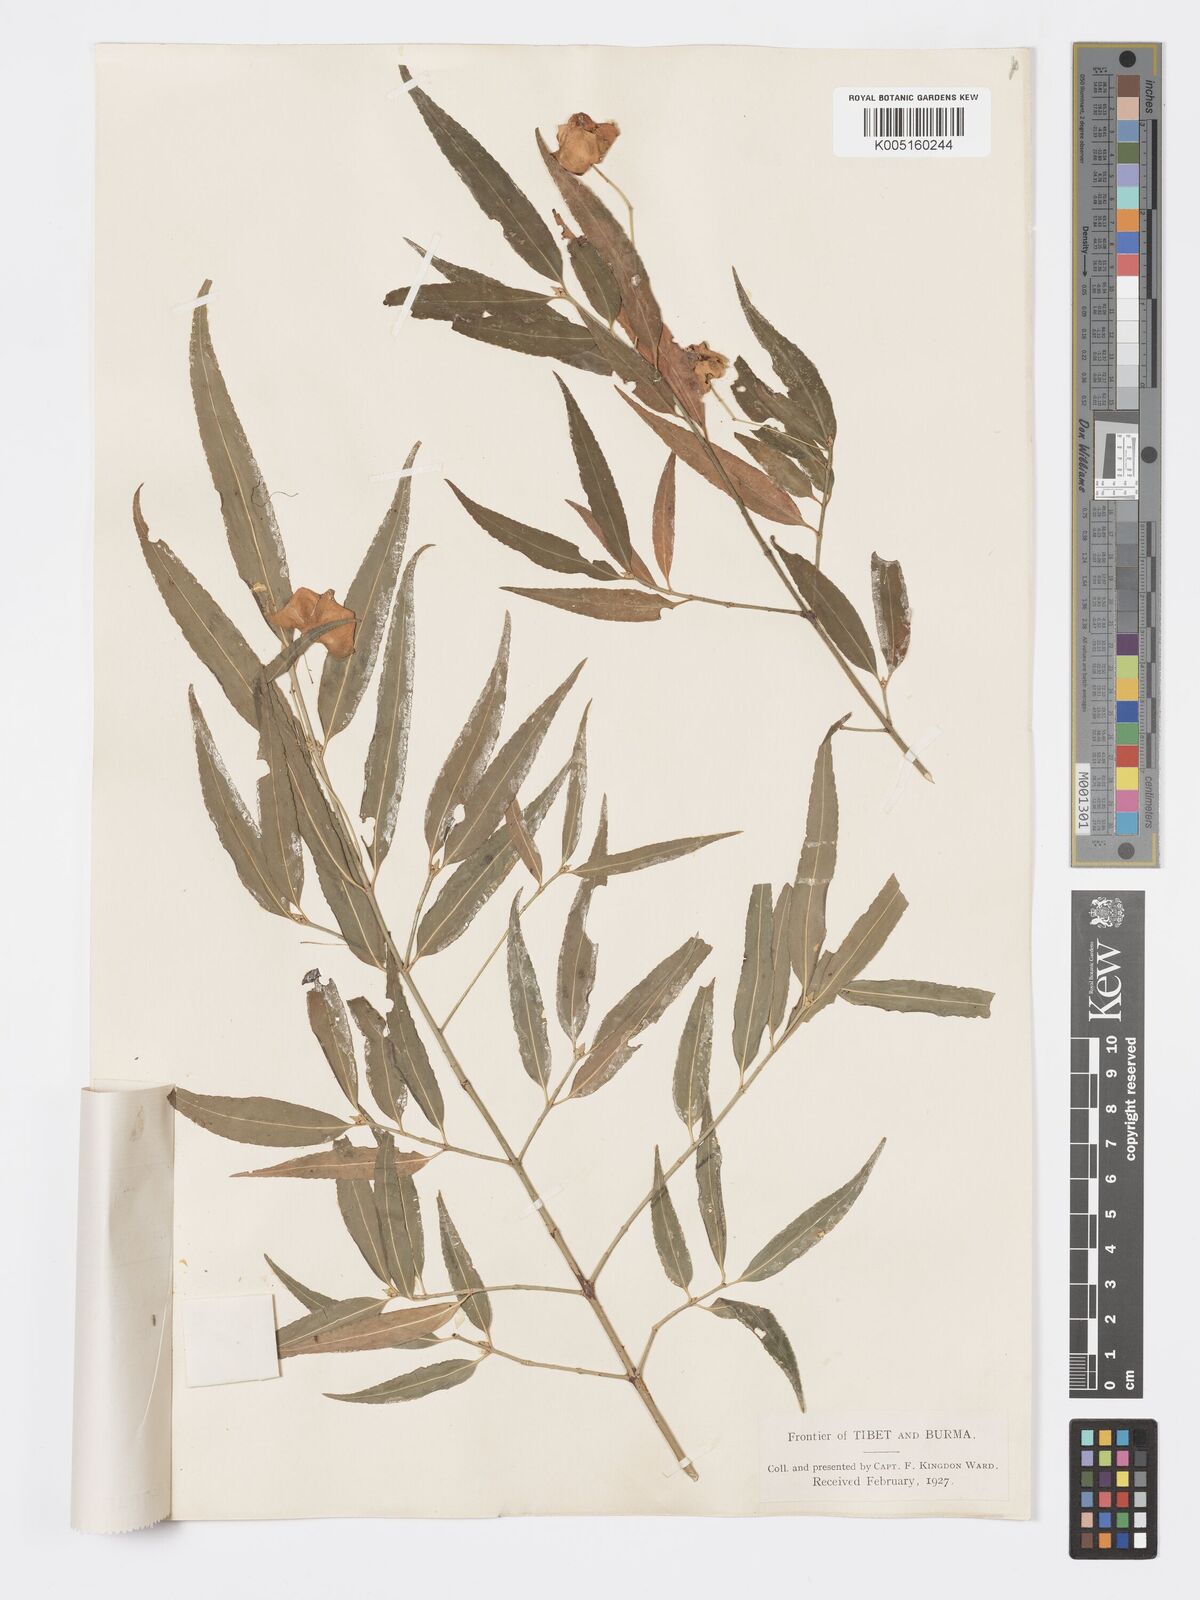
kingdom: Plantae
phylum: Tracheophyta
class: Magnoliopsida
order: Celastrales
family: Celastraceae
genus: Euonymus
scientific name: Euonymus cornutus
